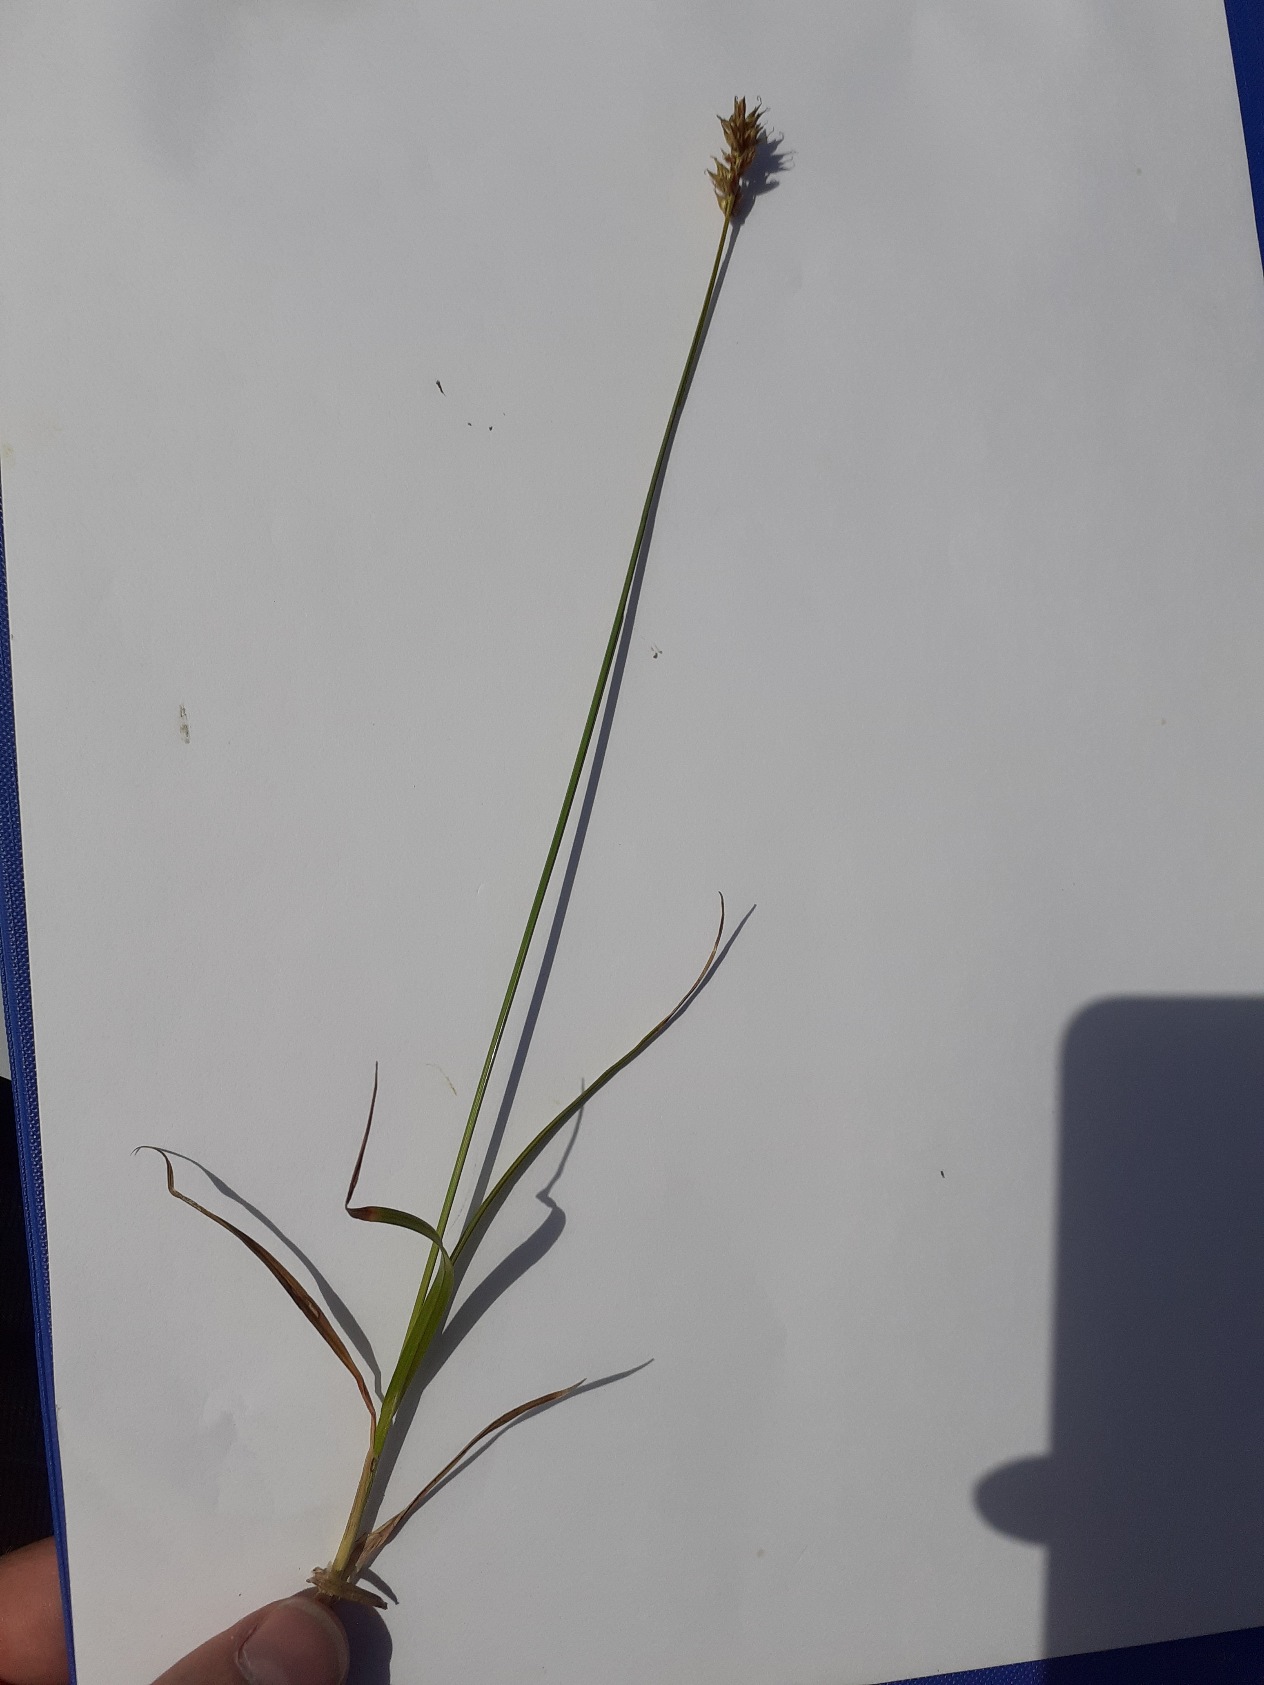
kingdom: Plantae
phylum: Tracheophyta
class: Liliopsida
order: Poales
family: Cyperaceae
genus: Carex
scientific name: Carex spicata
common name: Spidskapslet star
